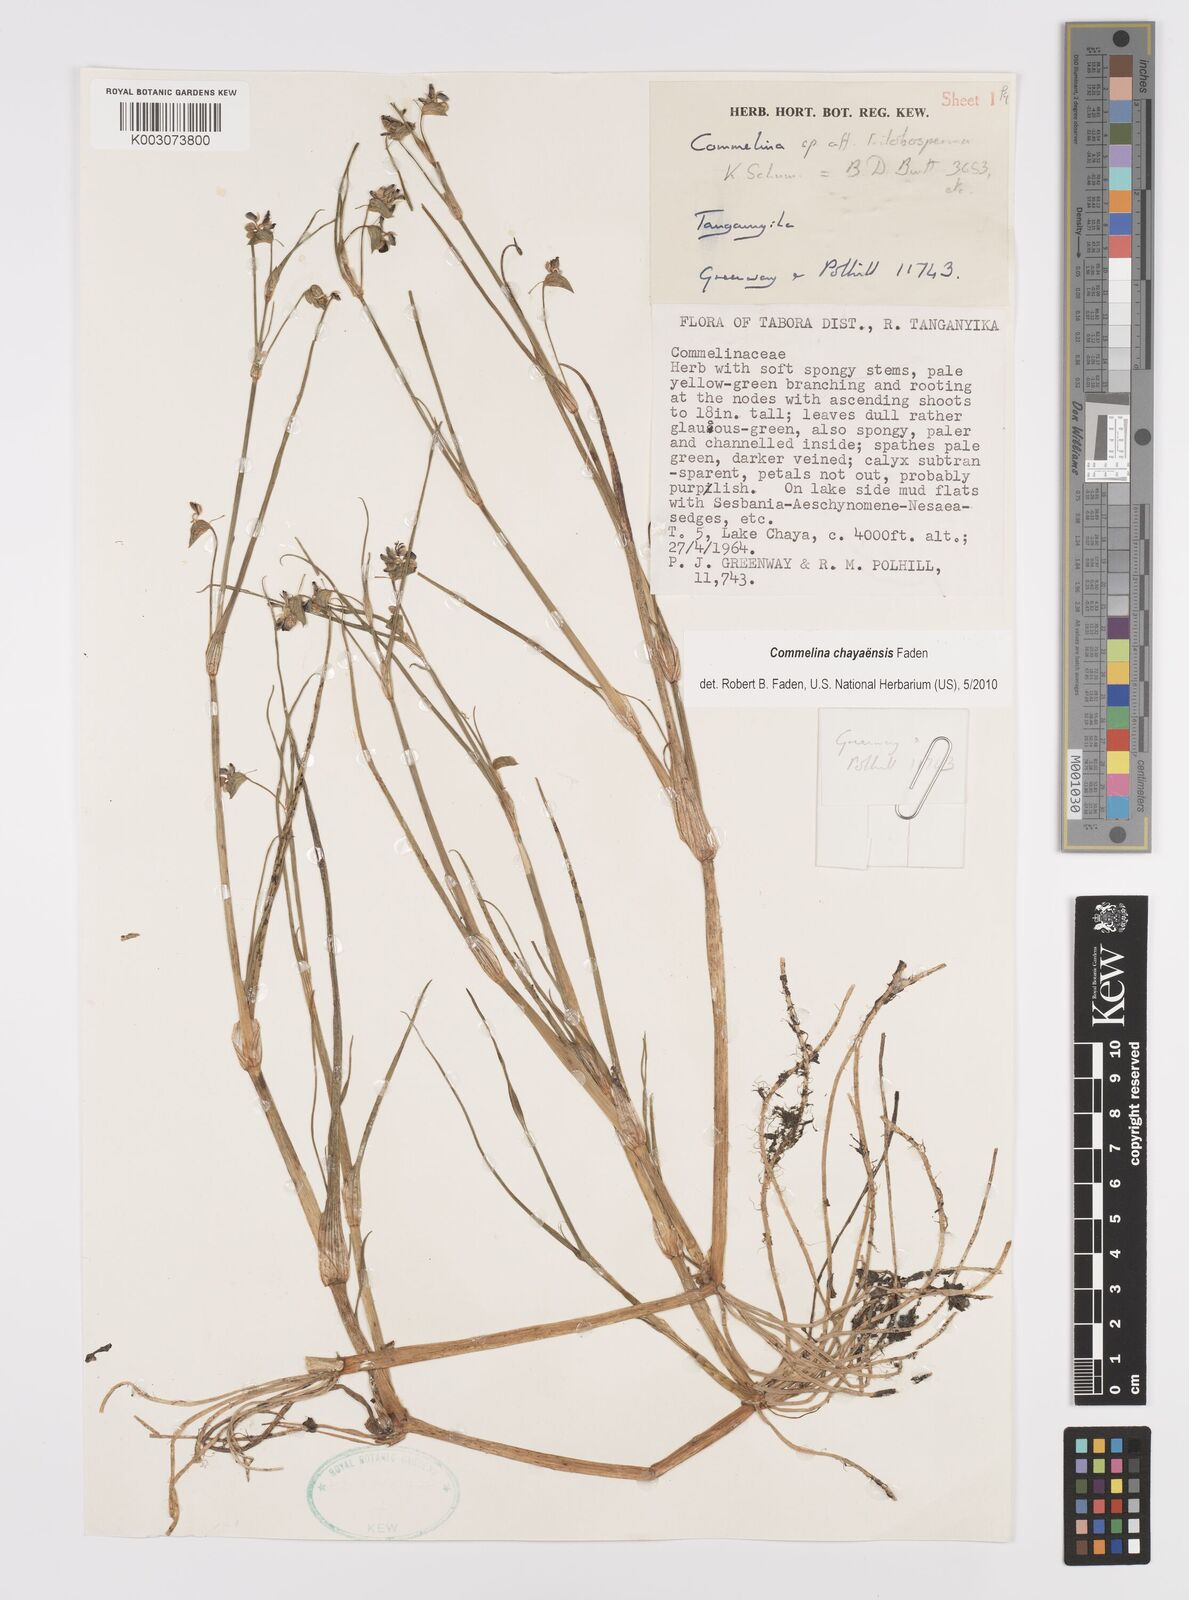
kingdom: Plantae
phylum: Tracheophyta
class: Liliopsida
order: Commelinales
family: Commelinaceae
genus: Commelina
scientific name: Commelina chayaensis
